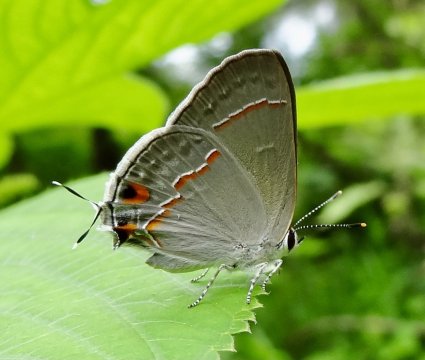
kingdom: Animalia
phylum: Arthropoda
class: Insecta
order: Lepidoptera
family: Lycaenidae
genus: Thecla
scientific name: Thecla bebrycia
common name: Red-lined Scrub-Hairstreak
